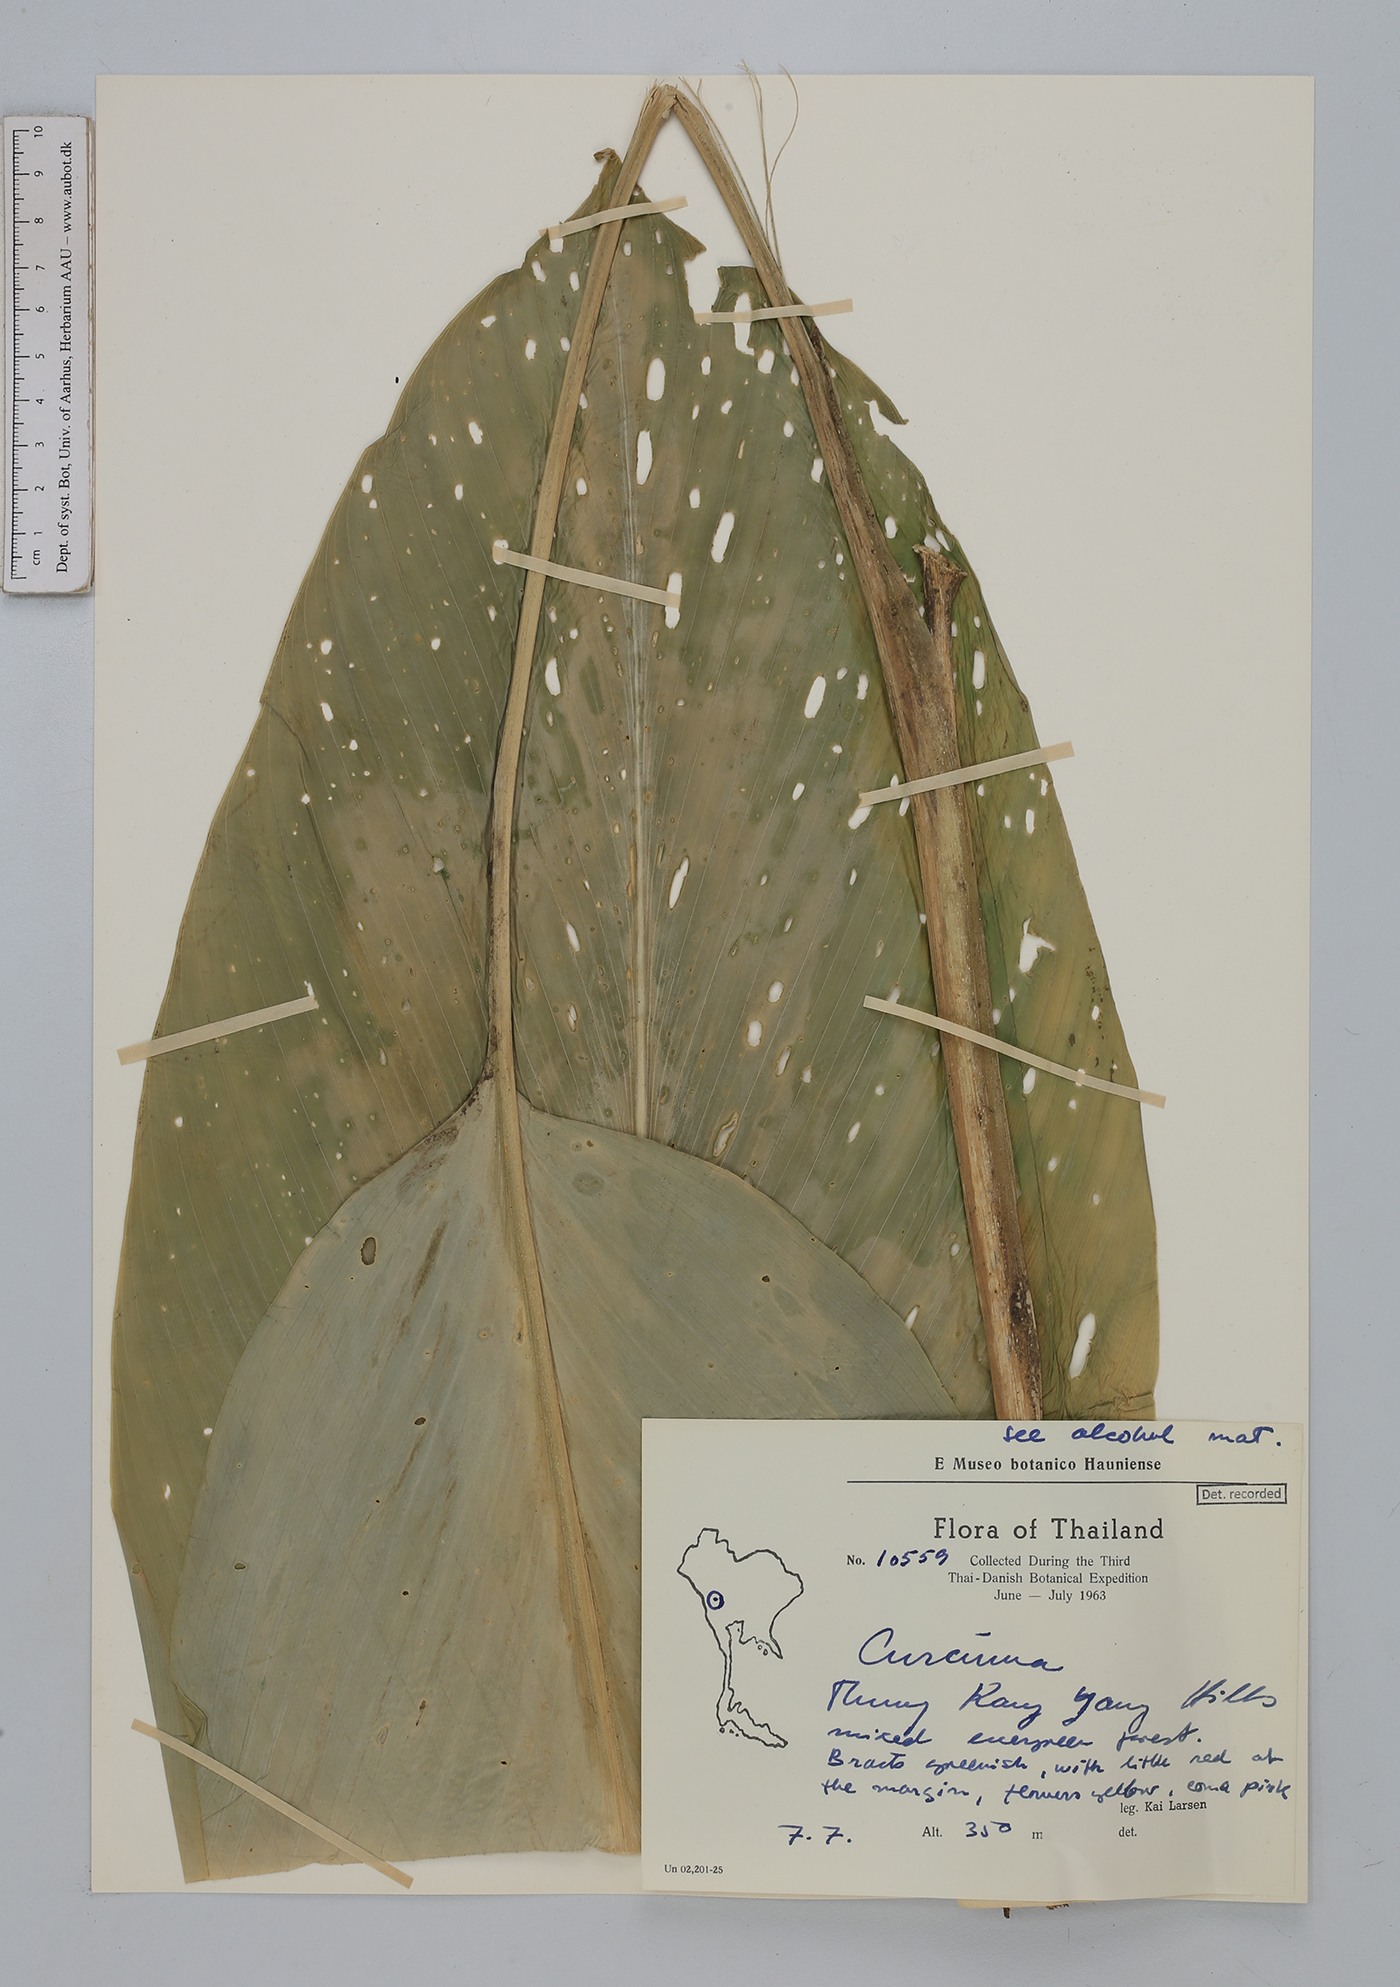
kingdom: Plantae
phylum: Tracheophyta
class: Liliopsida
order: Zingiberales
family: Zingiberaceae
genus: Curcuma
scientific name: Curcuma
